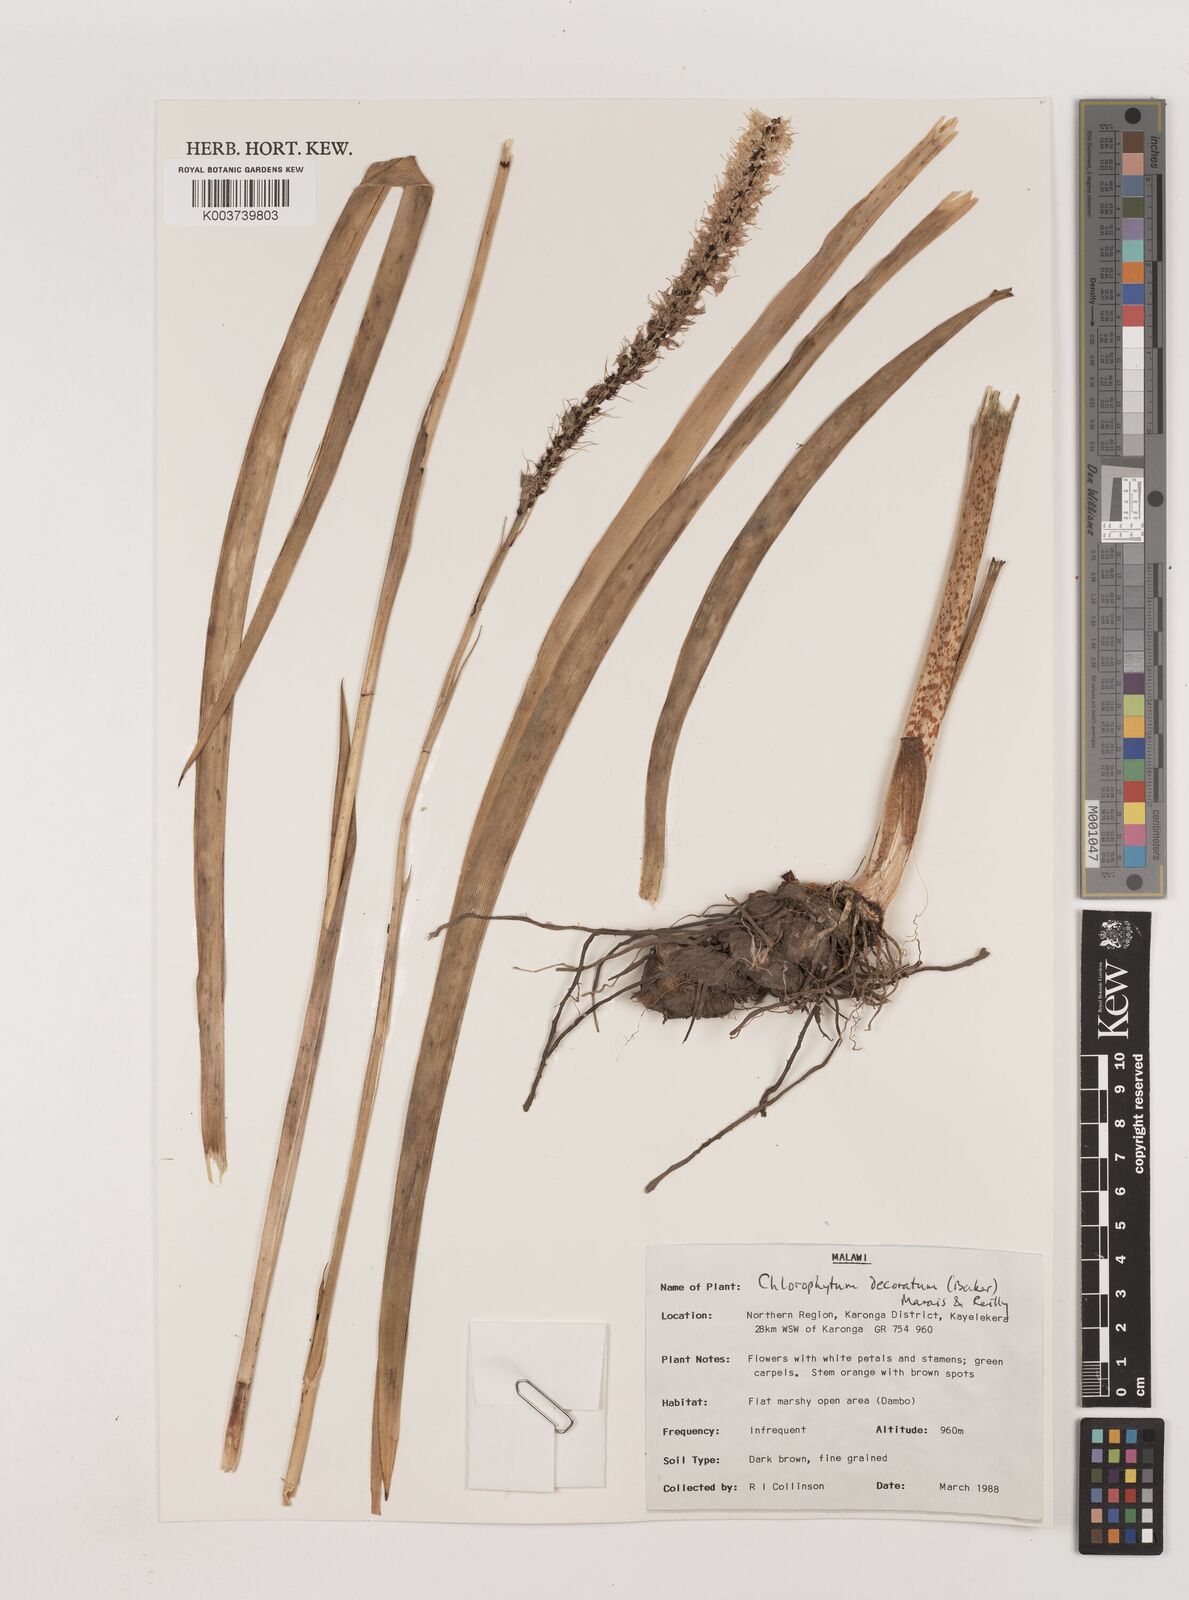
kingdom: Plantae
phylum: Tracheophyta
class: Liliopsida
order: Asparagales
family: Asparagaceae
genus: Chlorophytum
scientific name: Chlorophytum colubrinum
